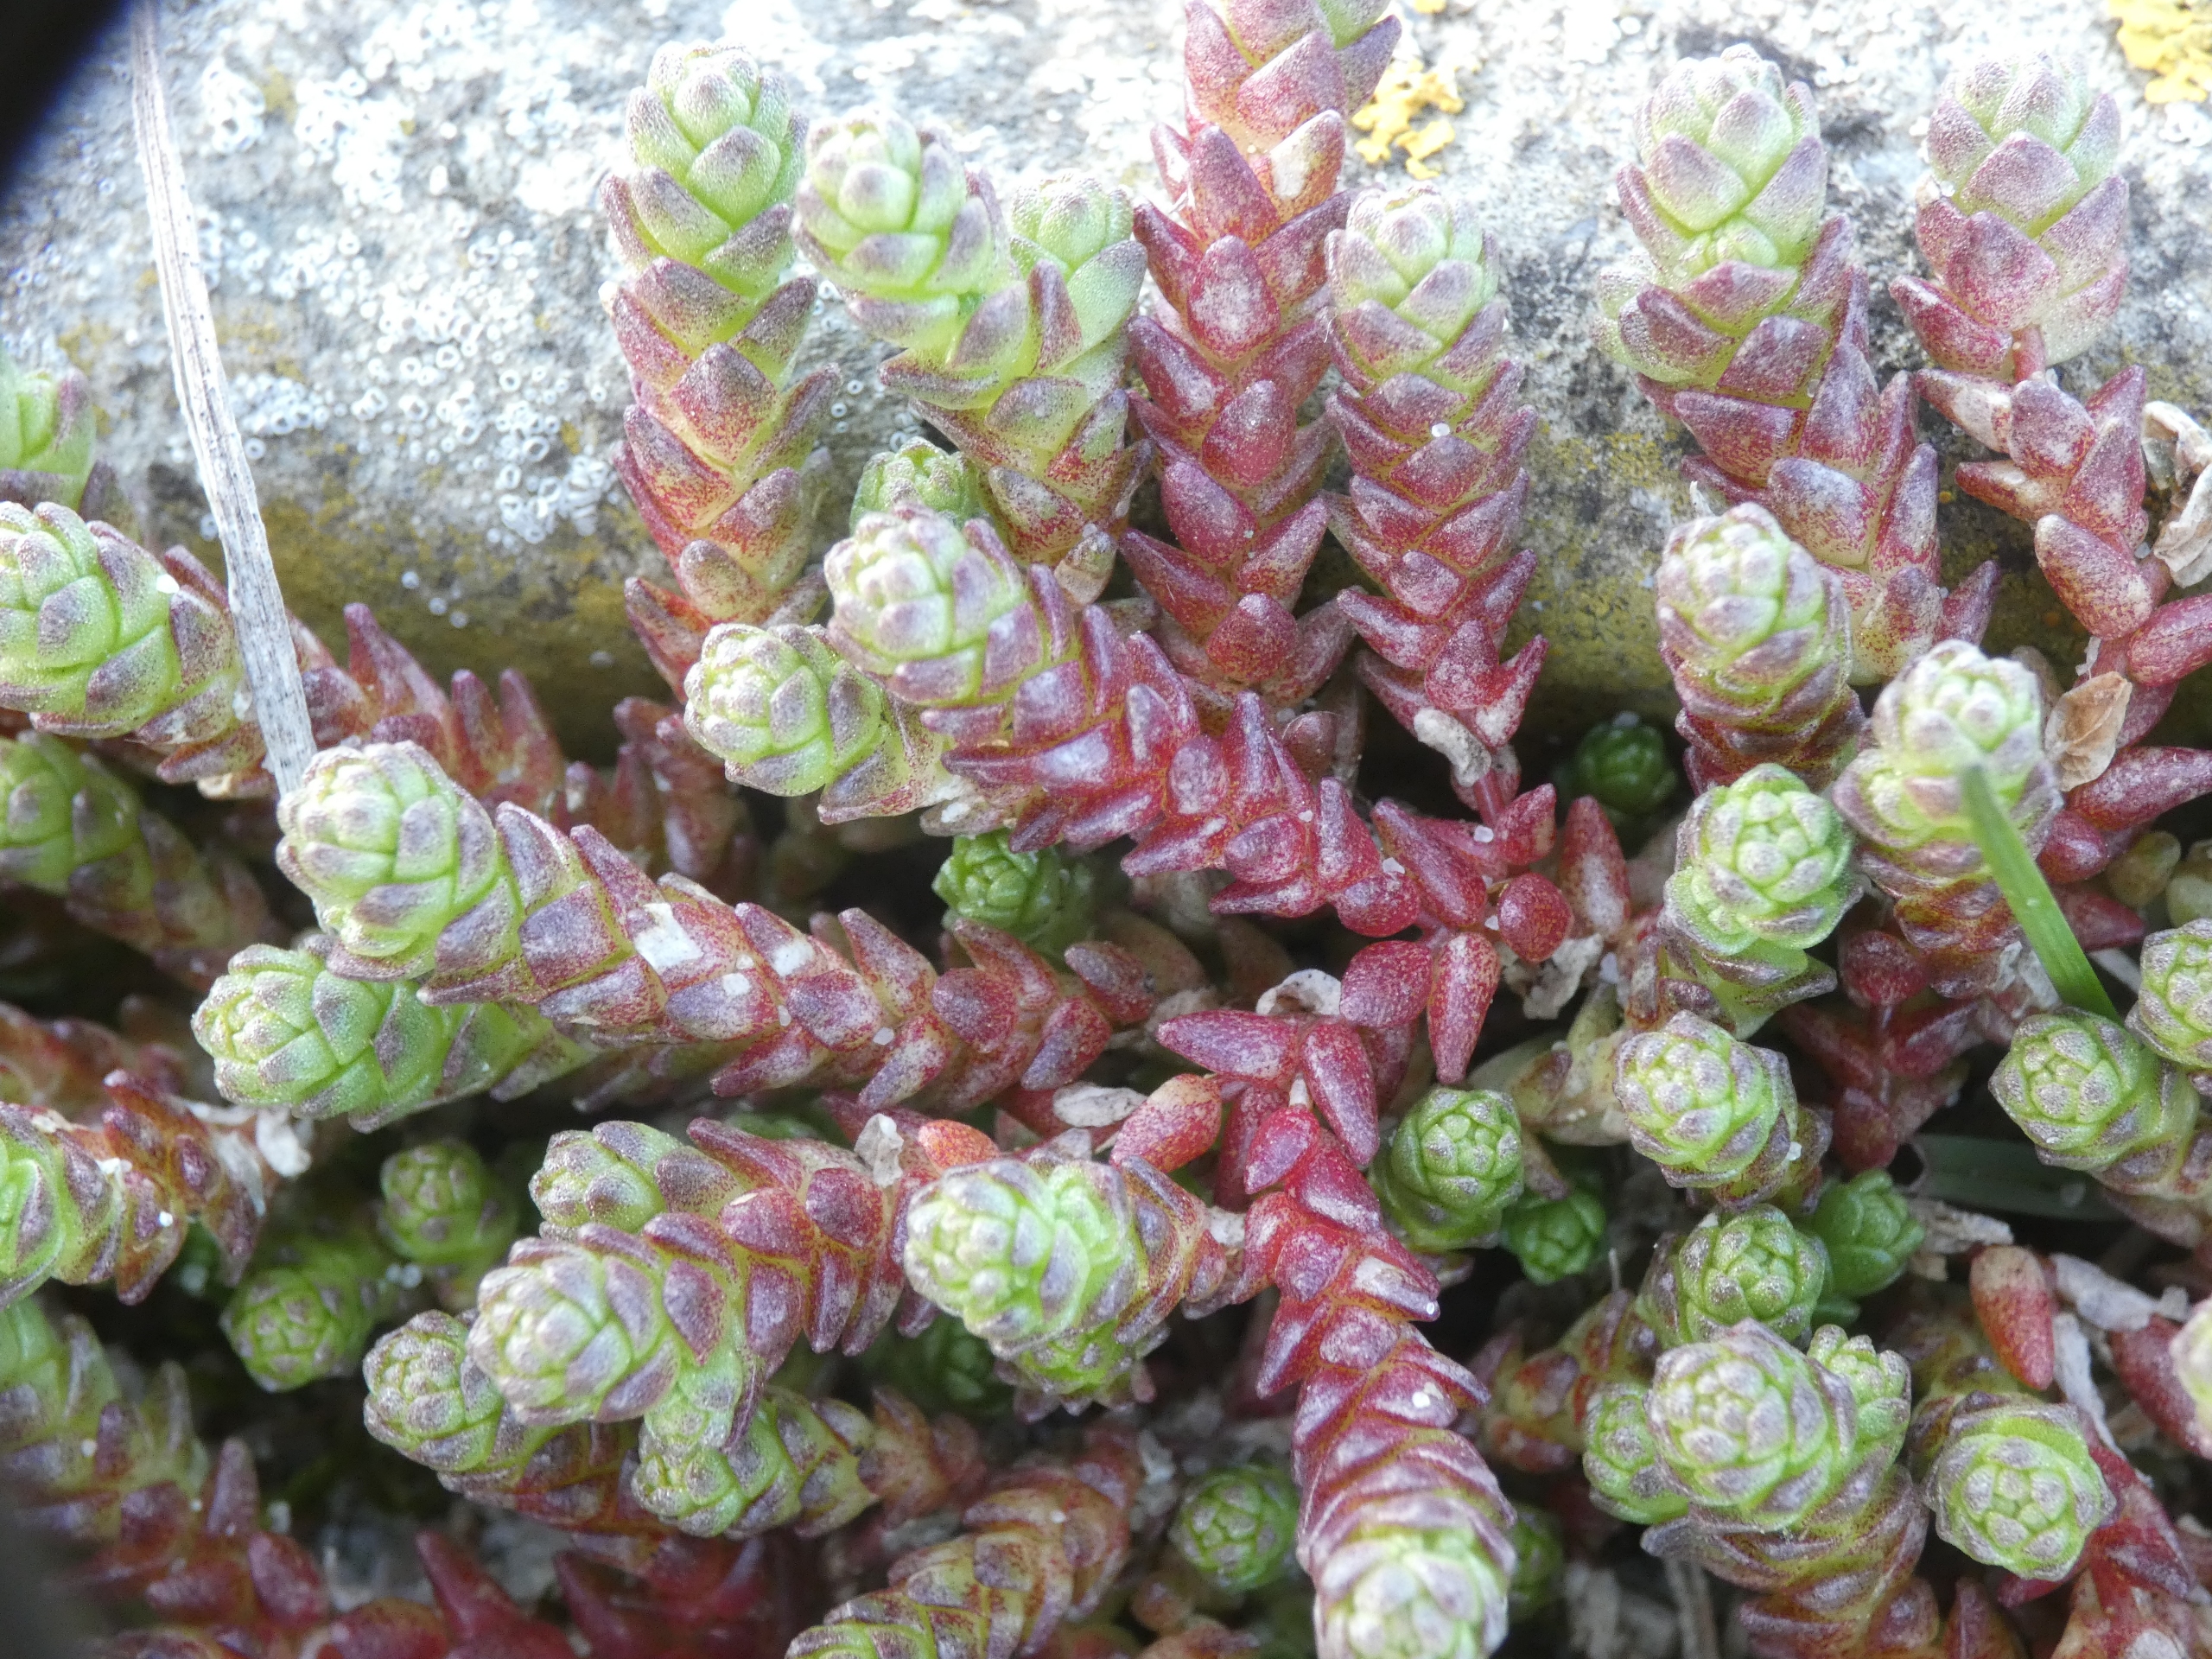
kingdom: Plantae
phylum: Tracheophyta
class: Magnoliopsida
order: Saxifragales
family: Crassulaceae
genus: Sedum
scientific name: Sedum acre
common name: Bidende stenurt
